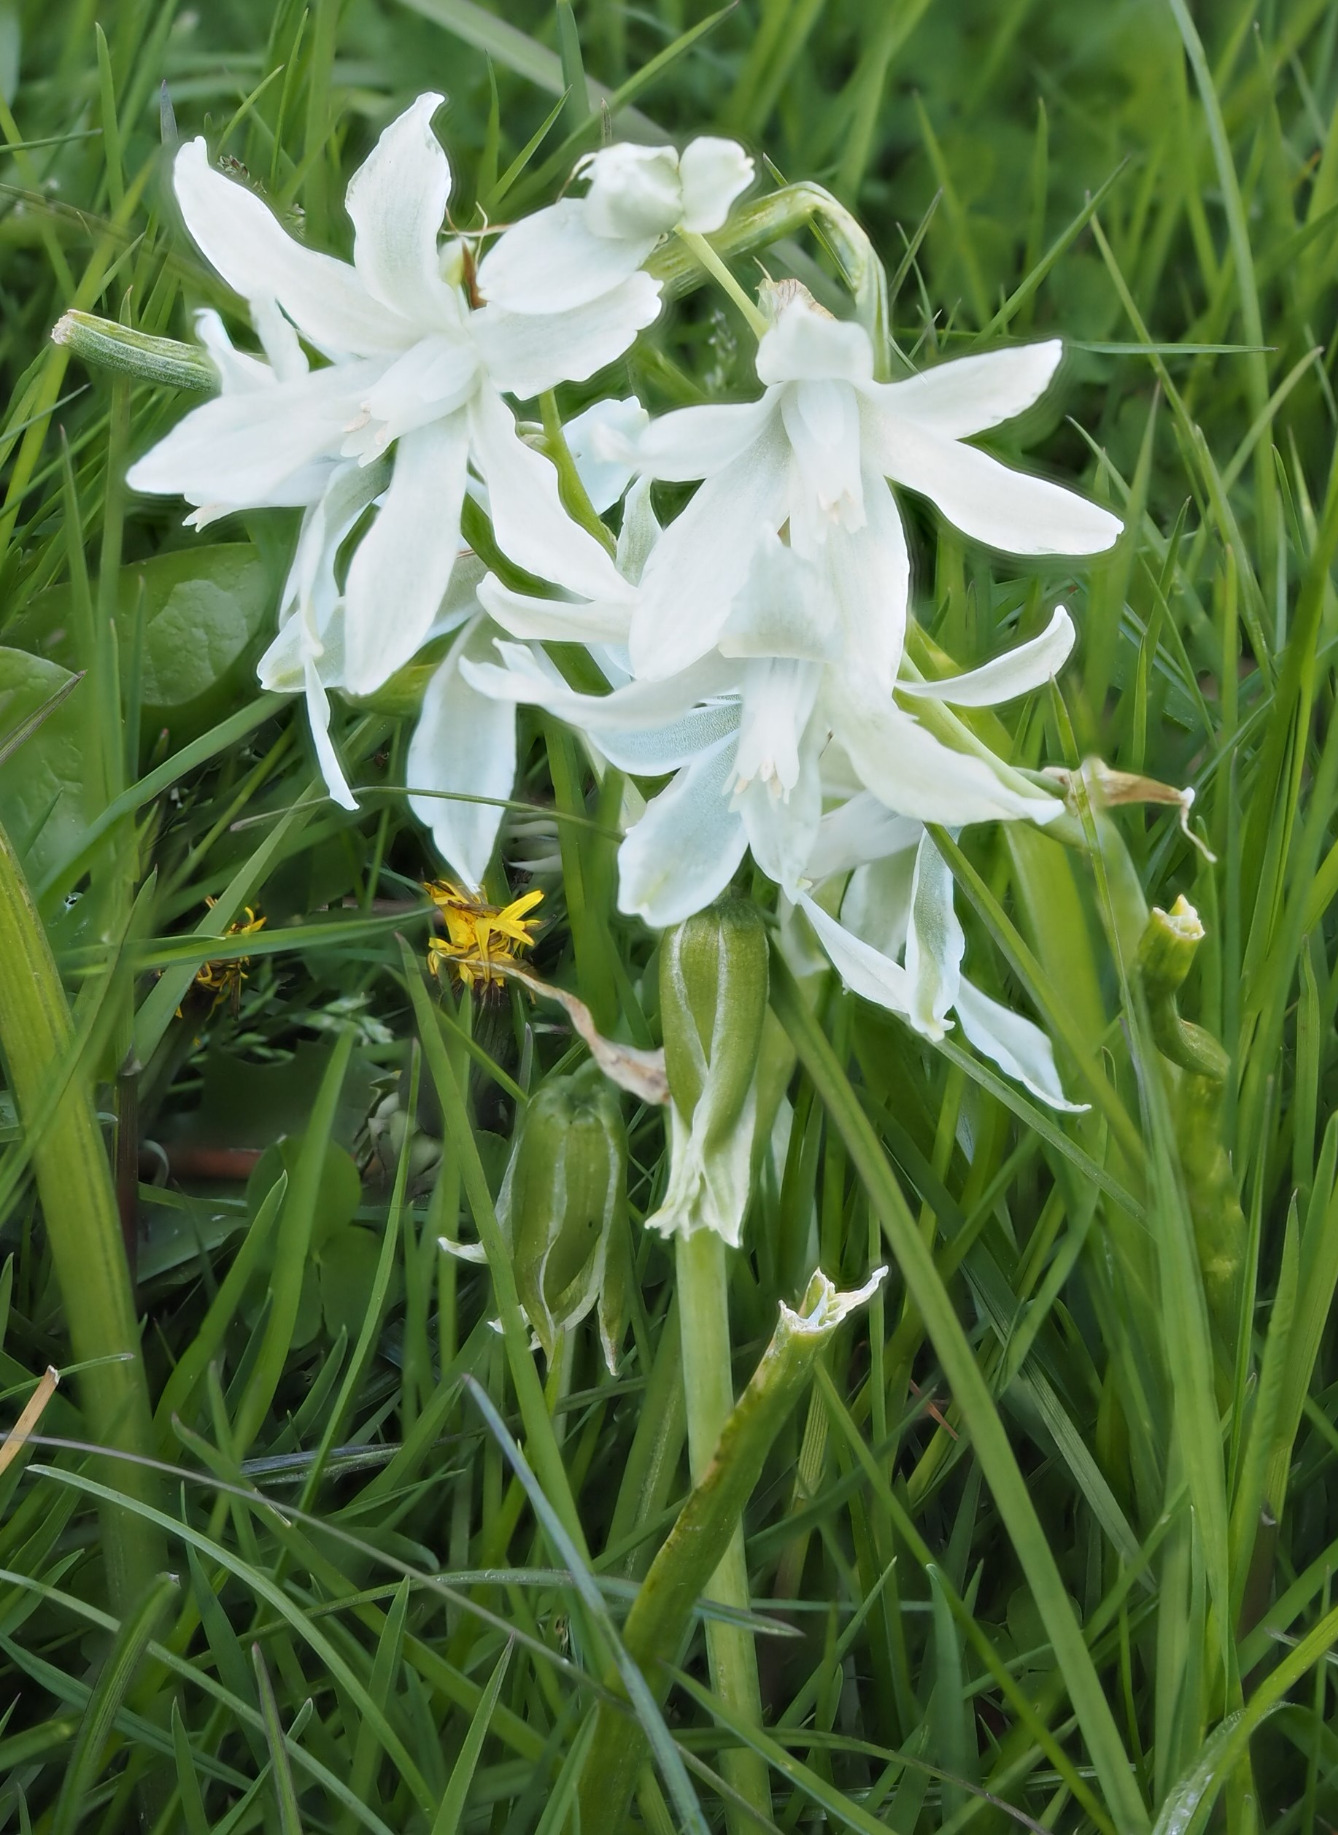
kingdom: Plantae
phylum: Tracheophyta
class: Liliopsida
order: Asparagales
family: Asparagaceae
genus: Ornithogalum
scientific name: Ornithogalum nutans
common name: Nikkende fuglemælk
